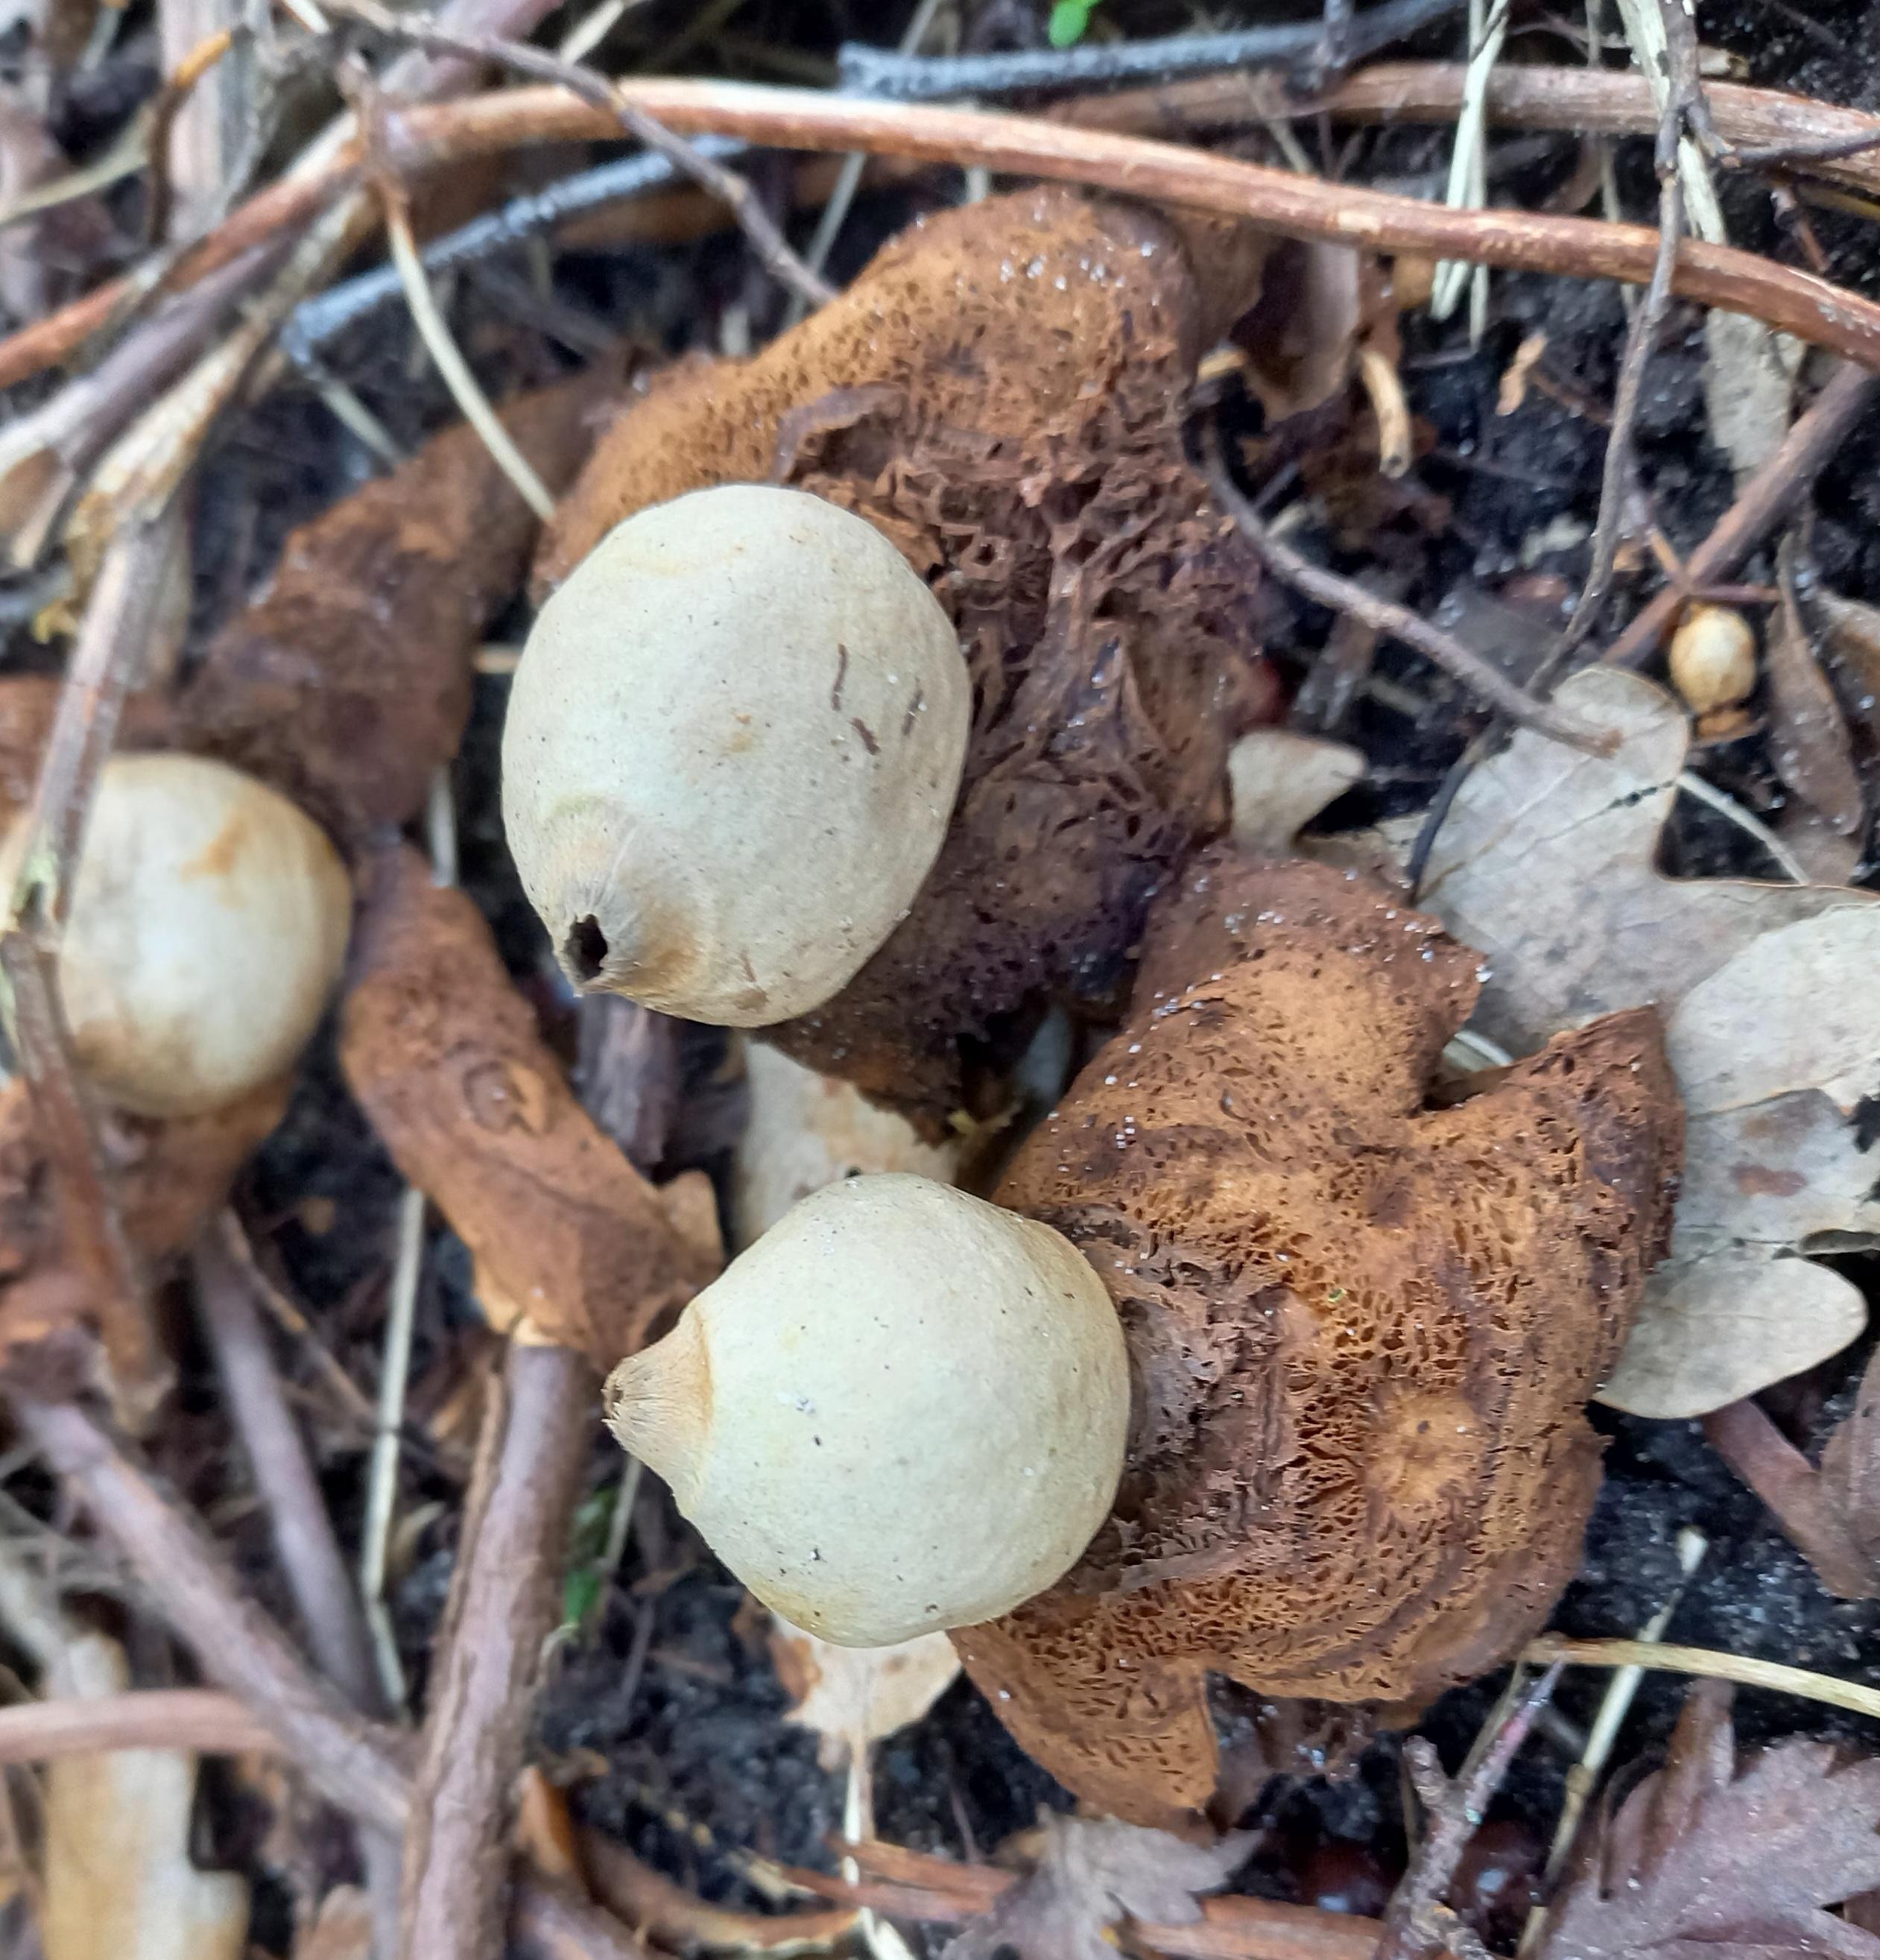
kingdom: Fungi
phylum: Basidiomycota
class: Agaricomycetes
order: Geastrales
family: Geastraceae
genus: Geastrum
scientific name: Geastrum michelianum
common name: kødet stjernebold
